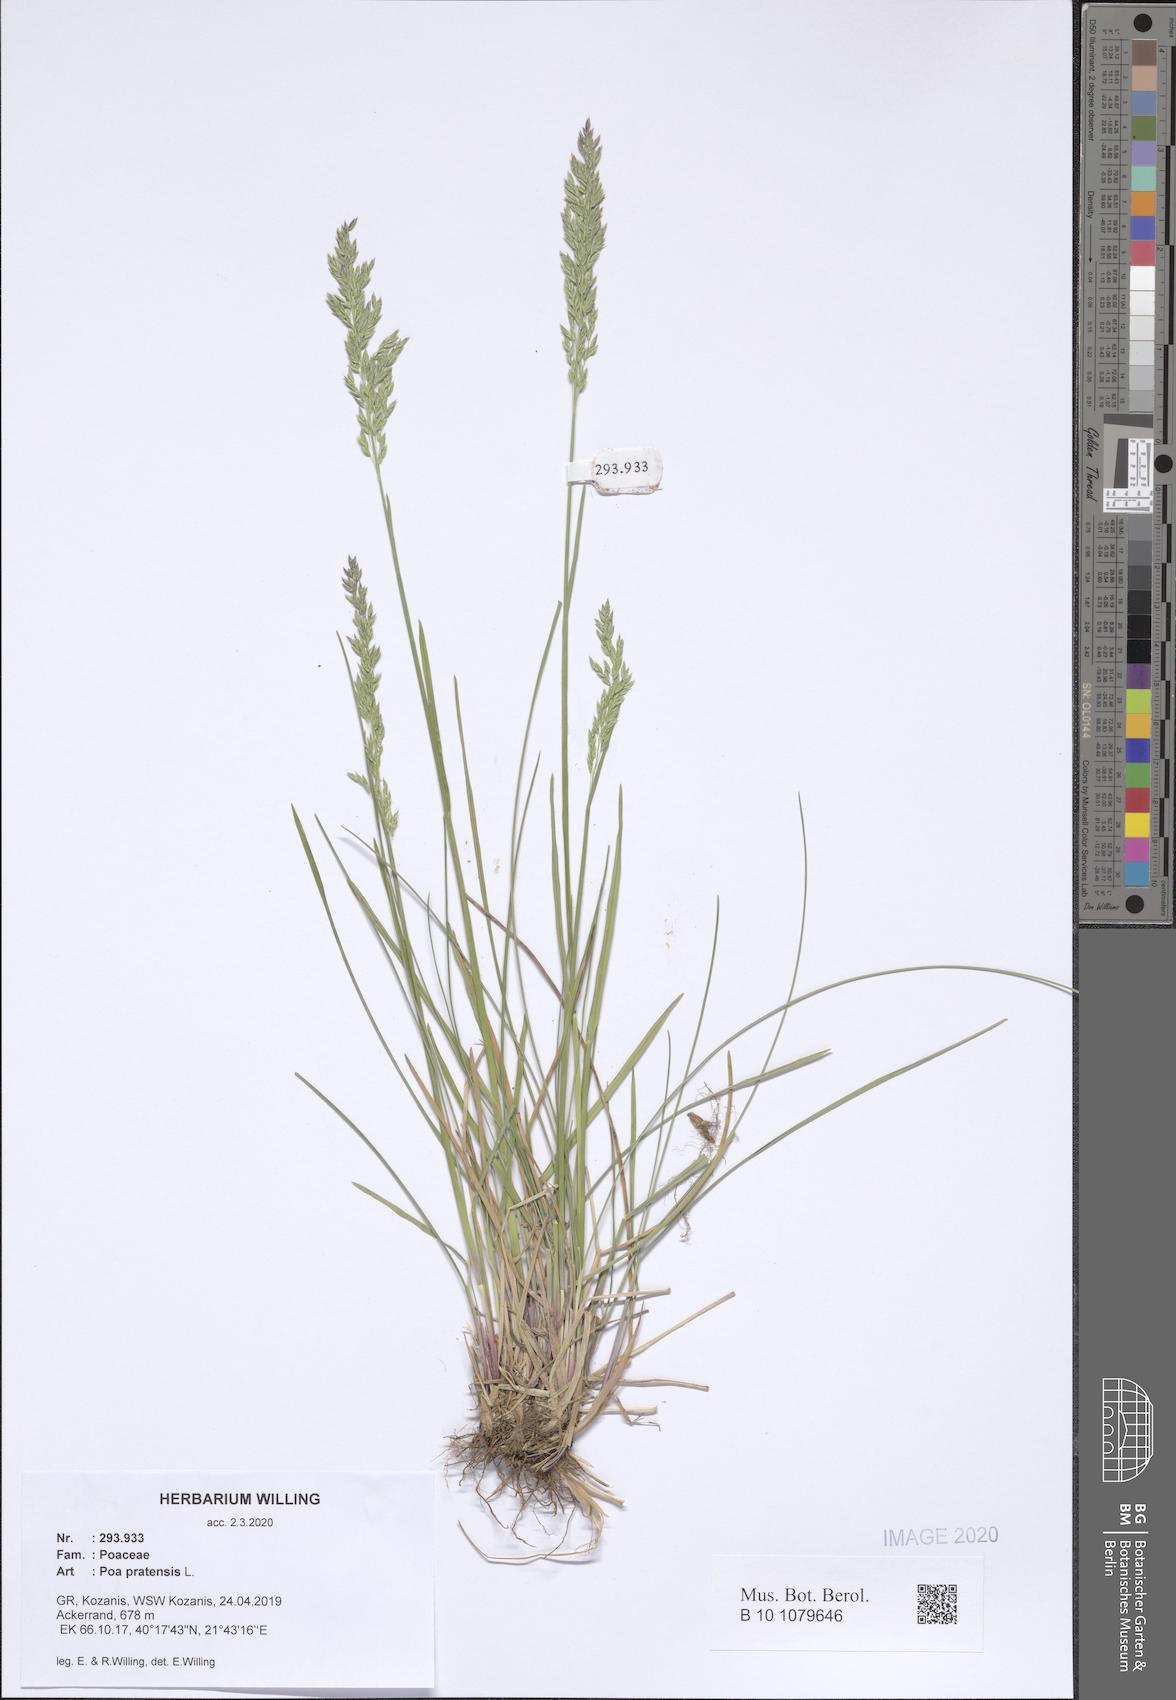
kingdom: Plantae
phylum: Tracheophyta
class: Liliopsida
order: Poales
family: Poaceae
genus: Poa
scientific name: Poa pratensis
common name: Kentucky bluegrass
